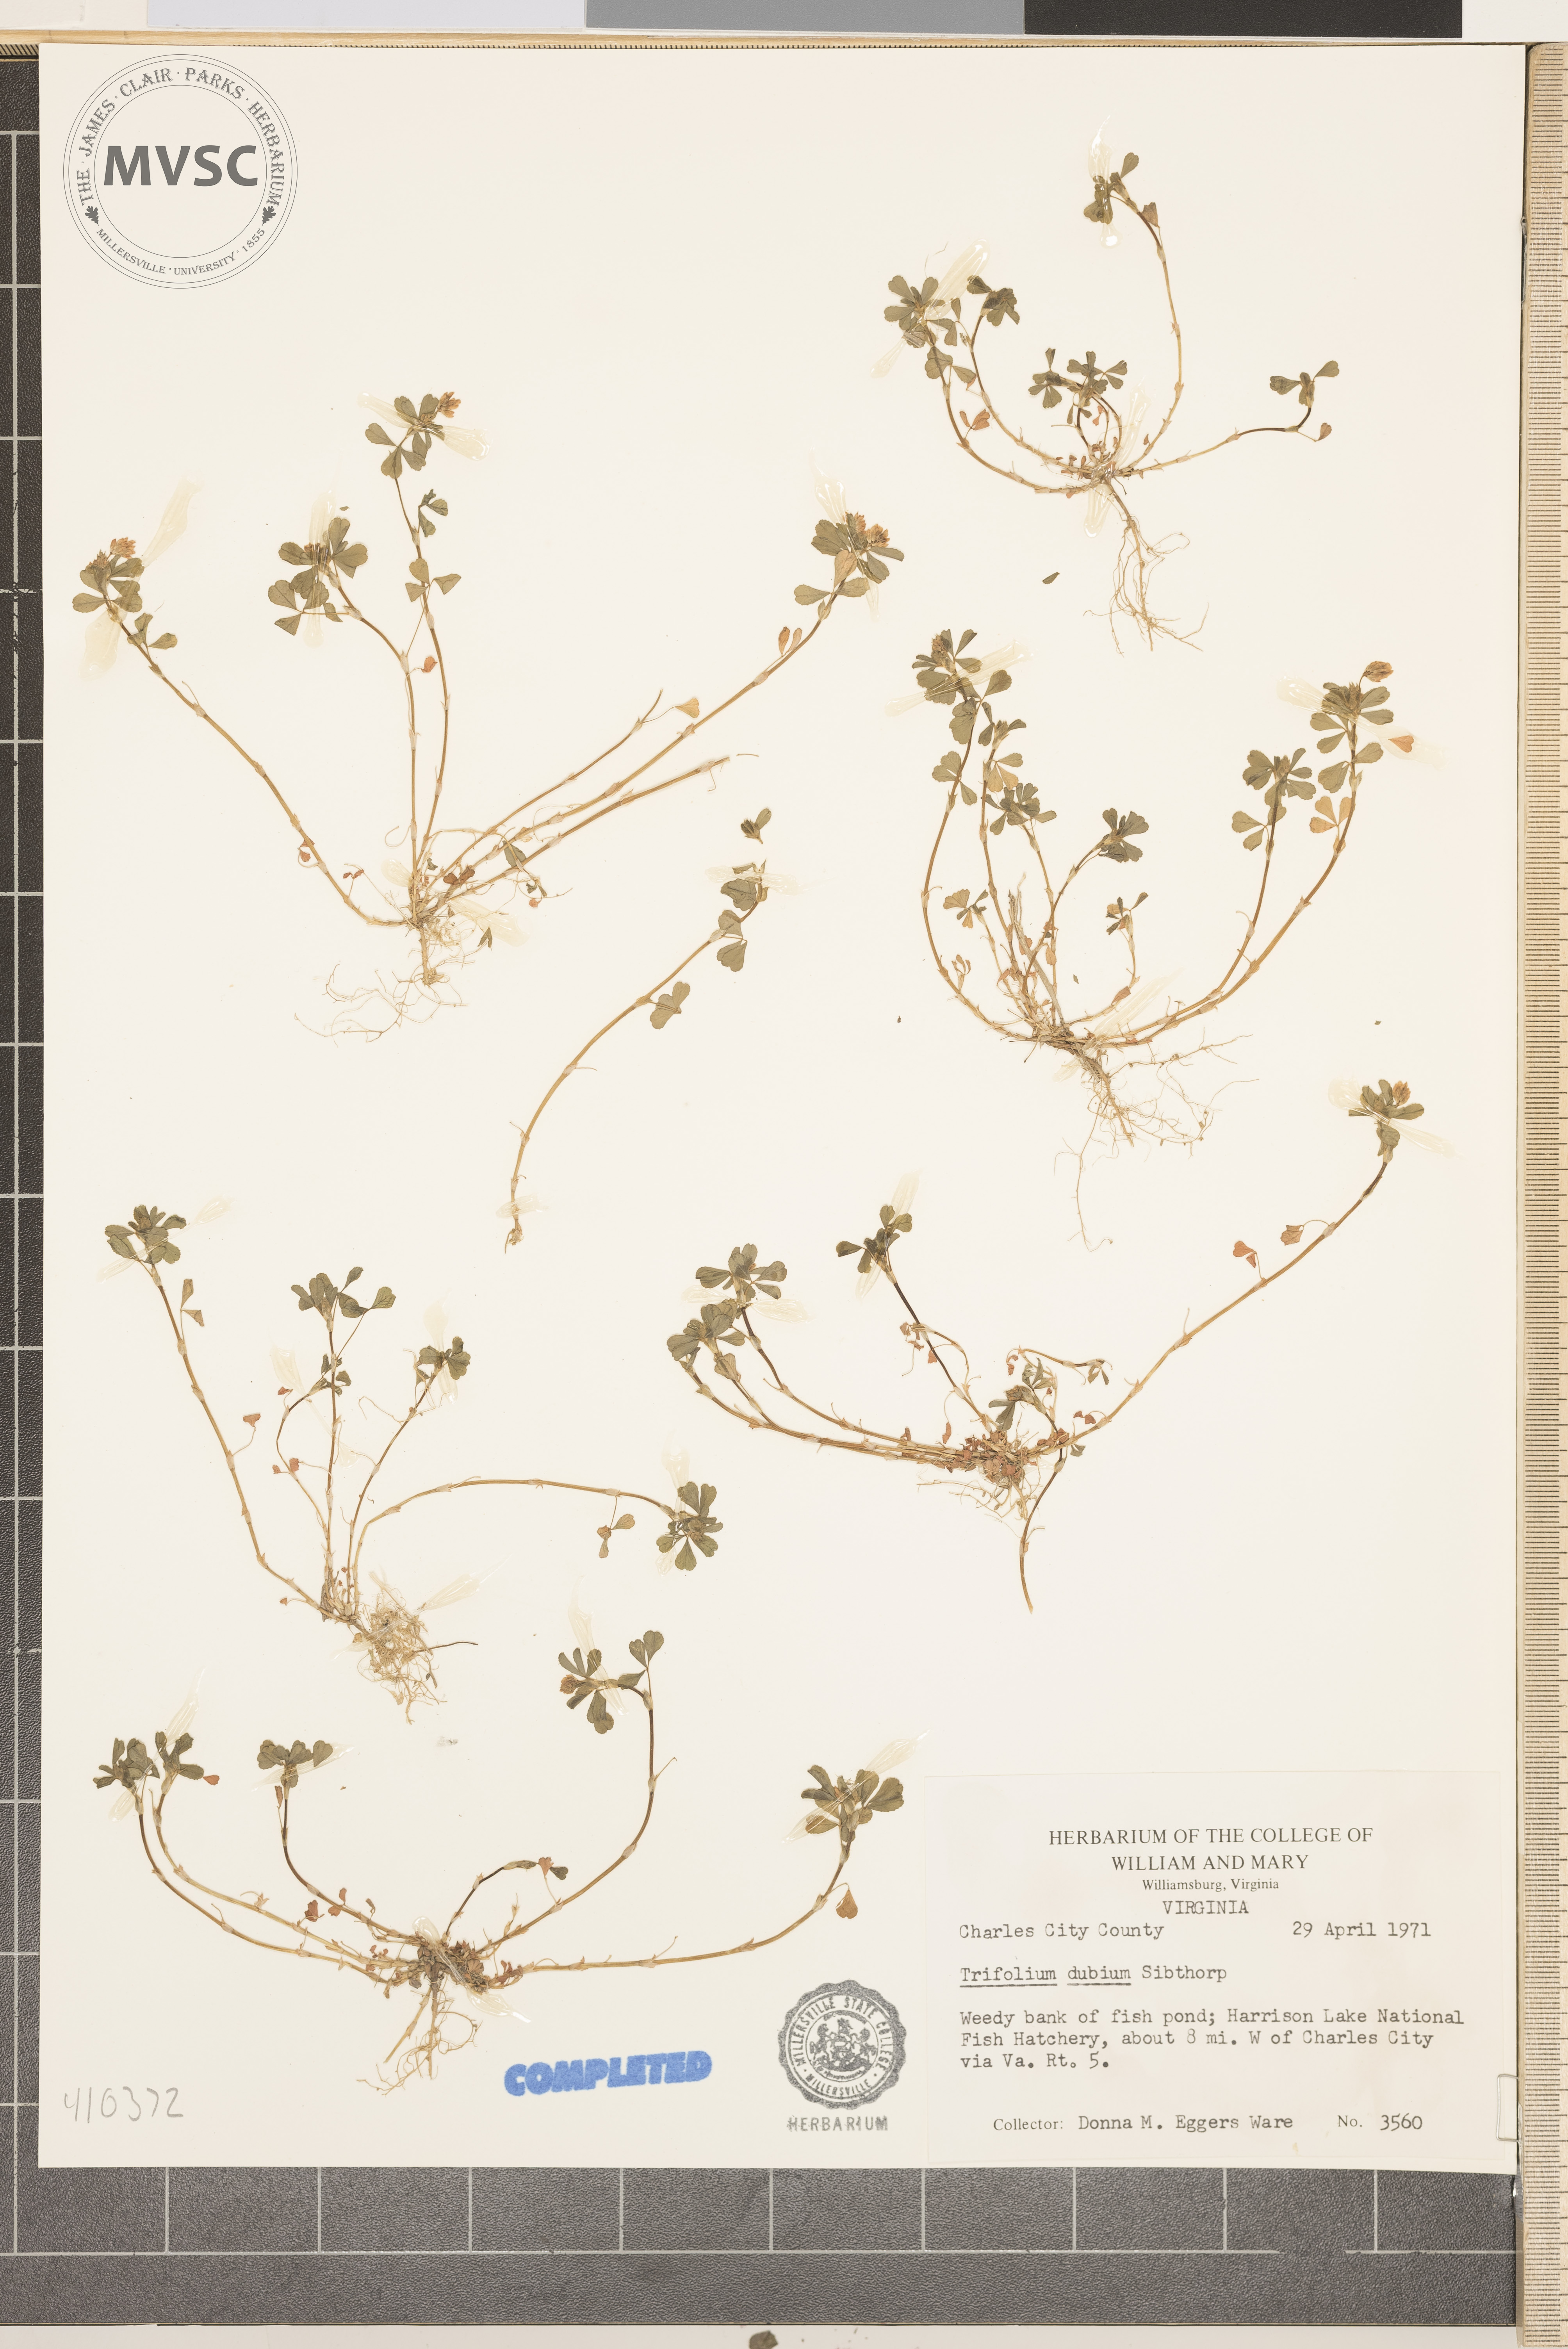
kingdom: Plantae
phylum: Tracheophyta
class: Magnoliopsida
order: Fabales
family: Fabaceae
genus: Trifolium
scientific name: Trifolium dubium
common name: Suckling clover
